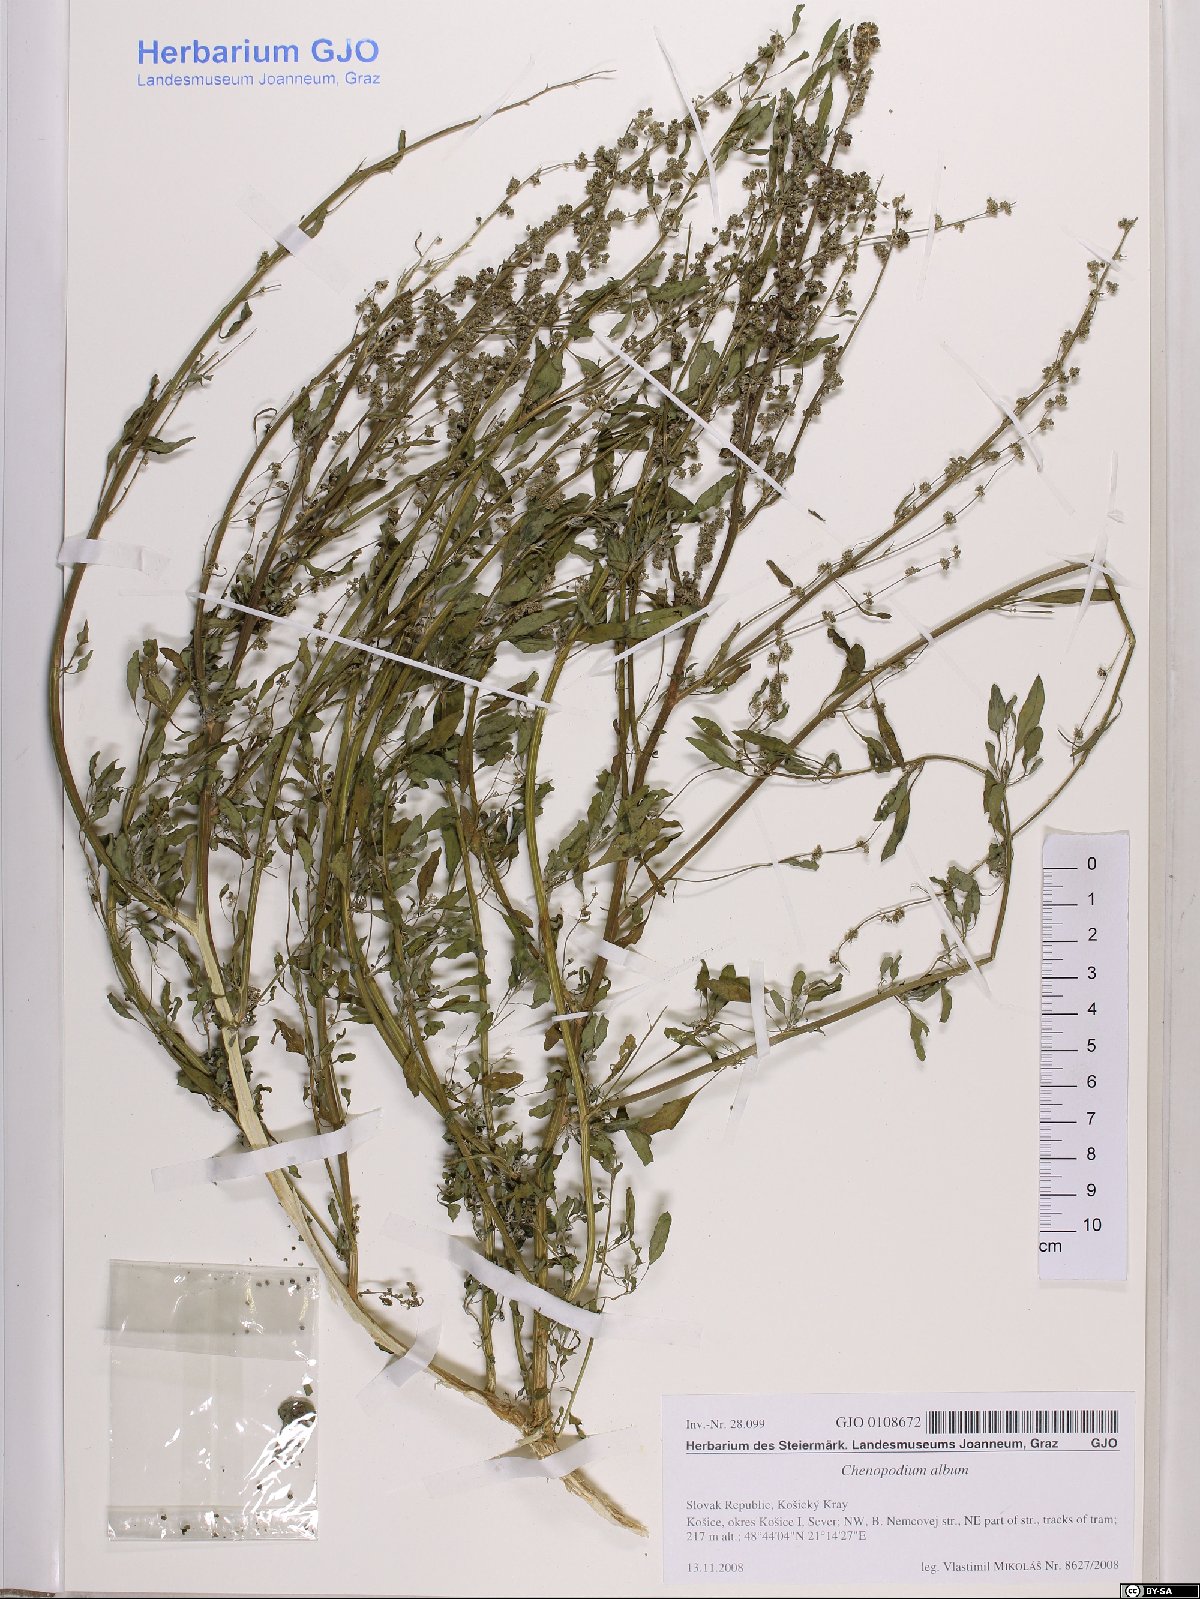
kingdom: Plantae
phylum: Tracheophyta
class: Magnoliopsida
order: Caryophyllales
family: Amaranthaceae
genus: Chenopodium
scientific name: Chenopodium album
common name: Fat-hen
